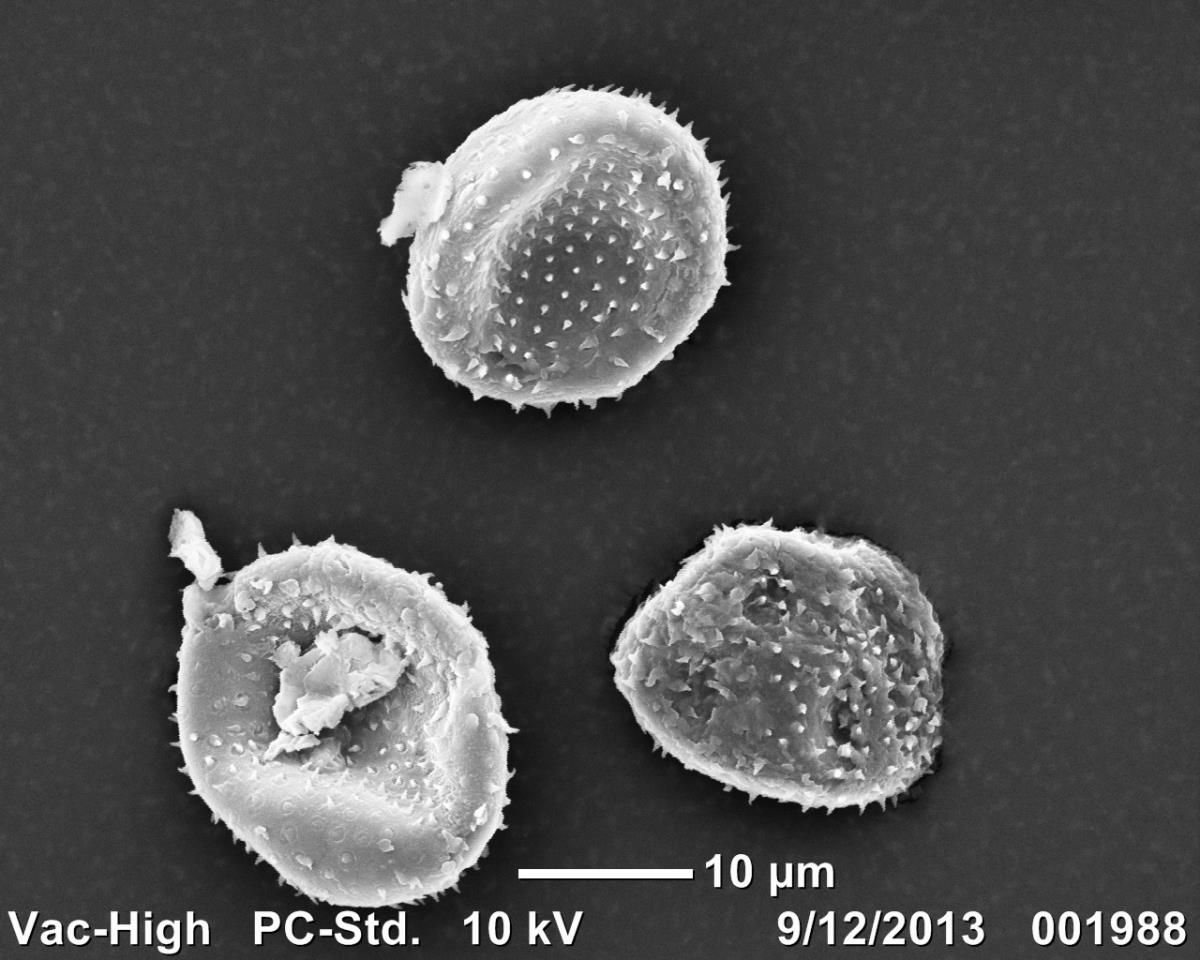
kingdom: Fungi
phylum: Basidiomycota
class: Pucciniomycetes
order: Pucciniales
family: Pucciniaceae
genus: Puccinia
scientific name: Puccinia porri
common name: Allium rust
